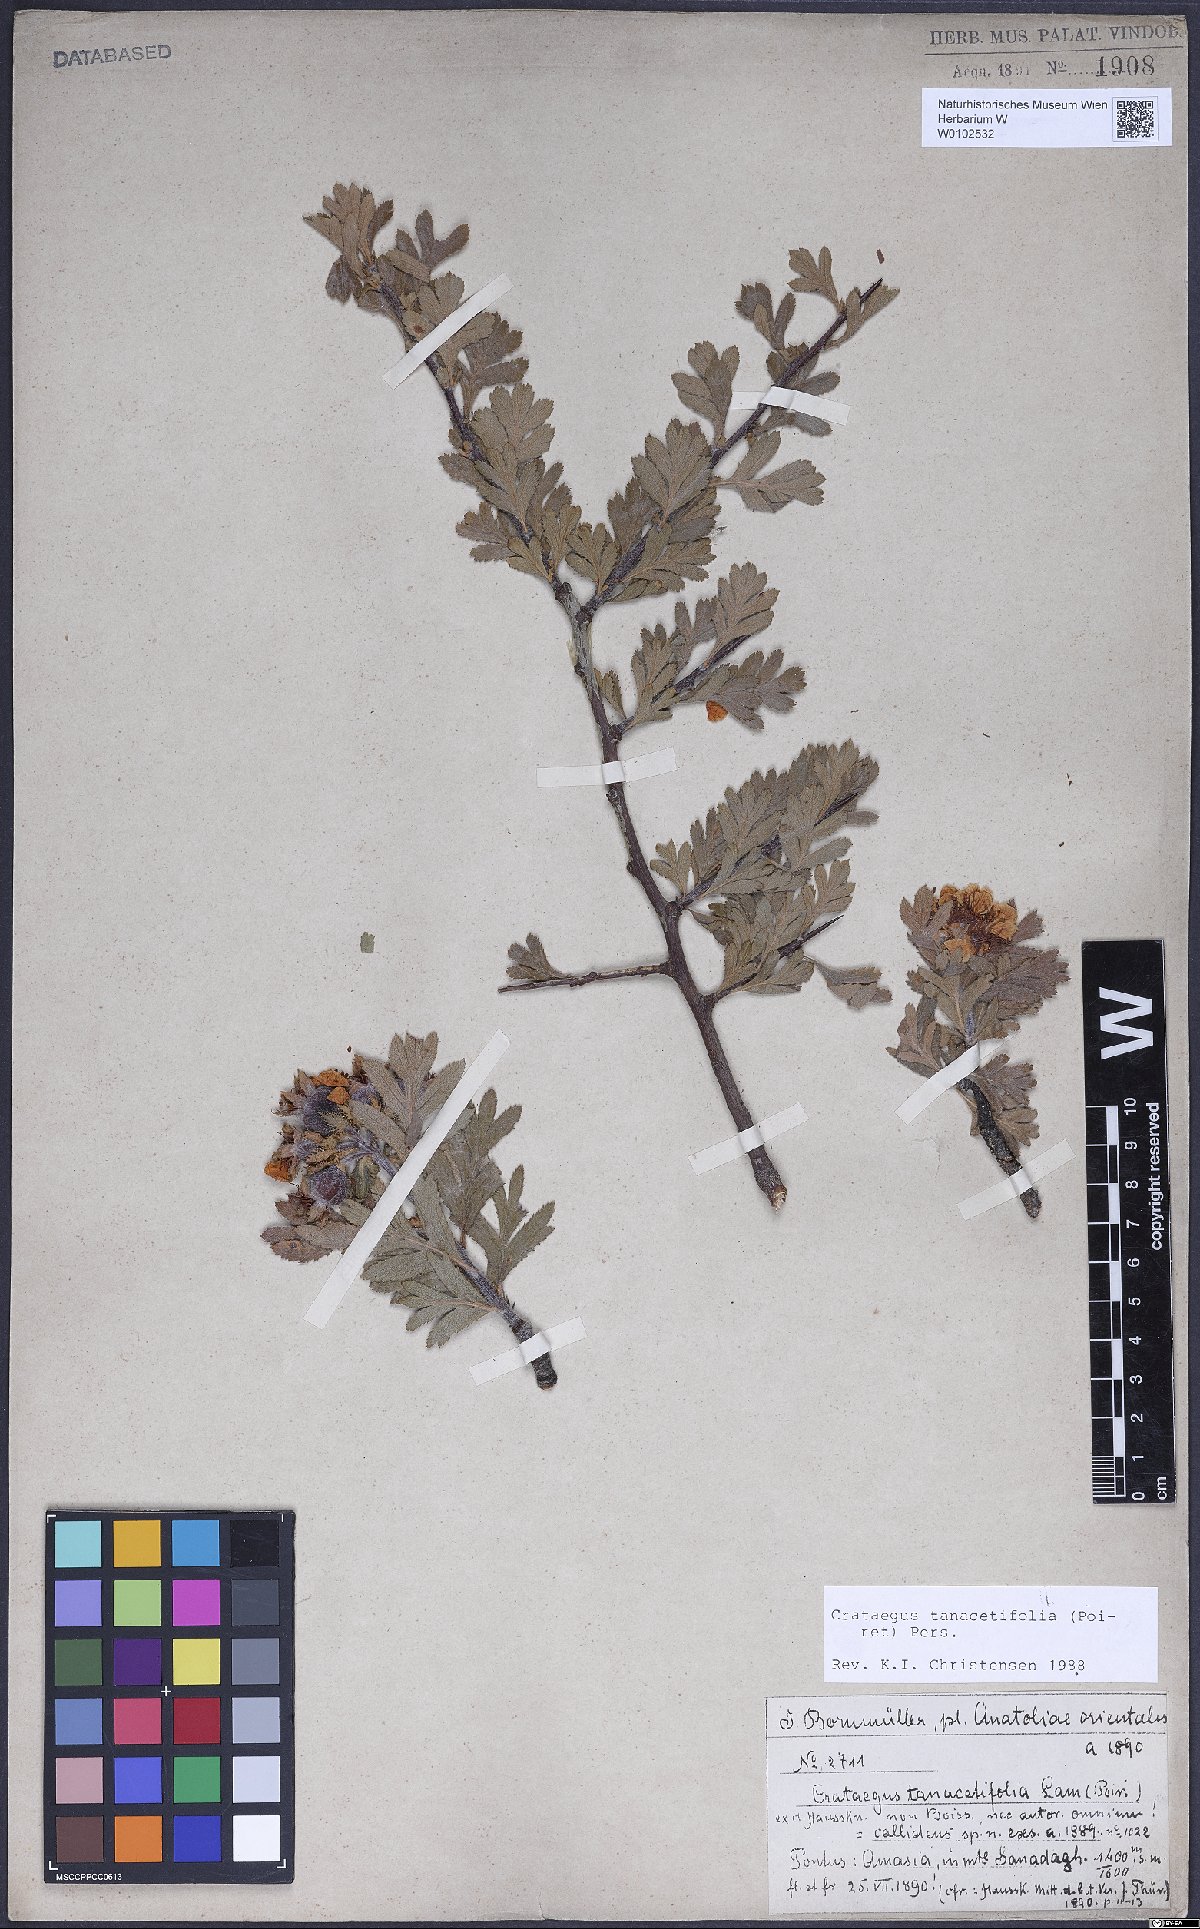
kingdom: Plantae
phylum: Tracheophyta
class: Magnoliopsida
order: Rosales
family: Rosaceae
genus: Crataegus
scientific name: Crataegus tanacetifolia
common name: Tansy-leaved thorn
